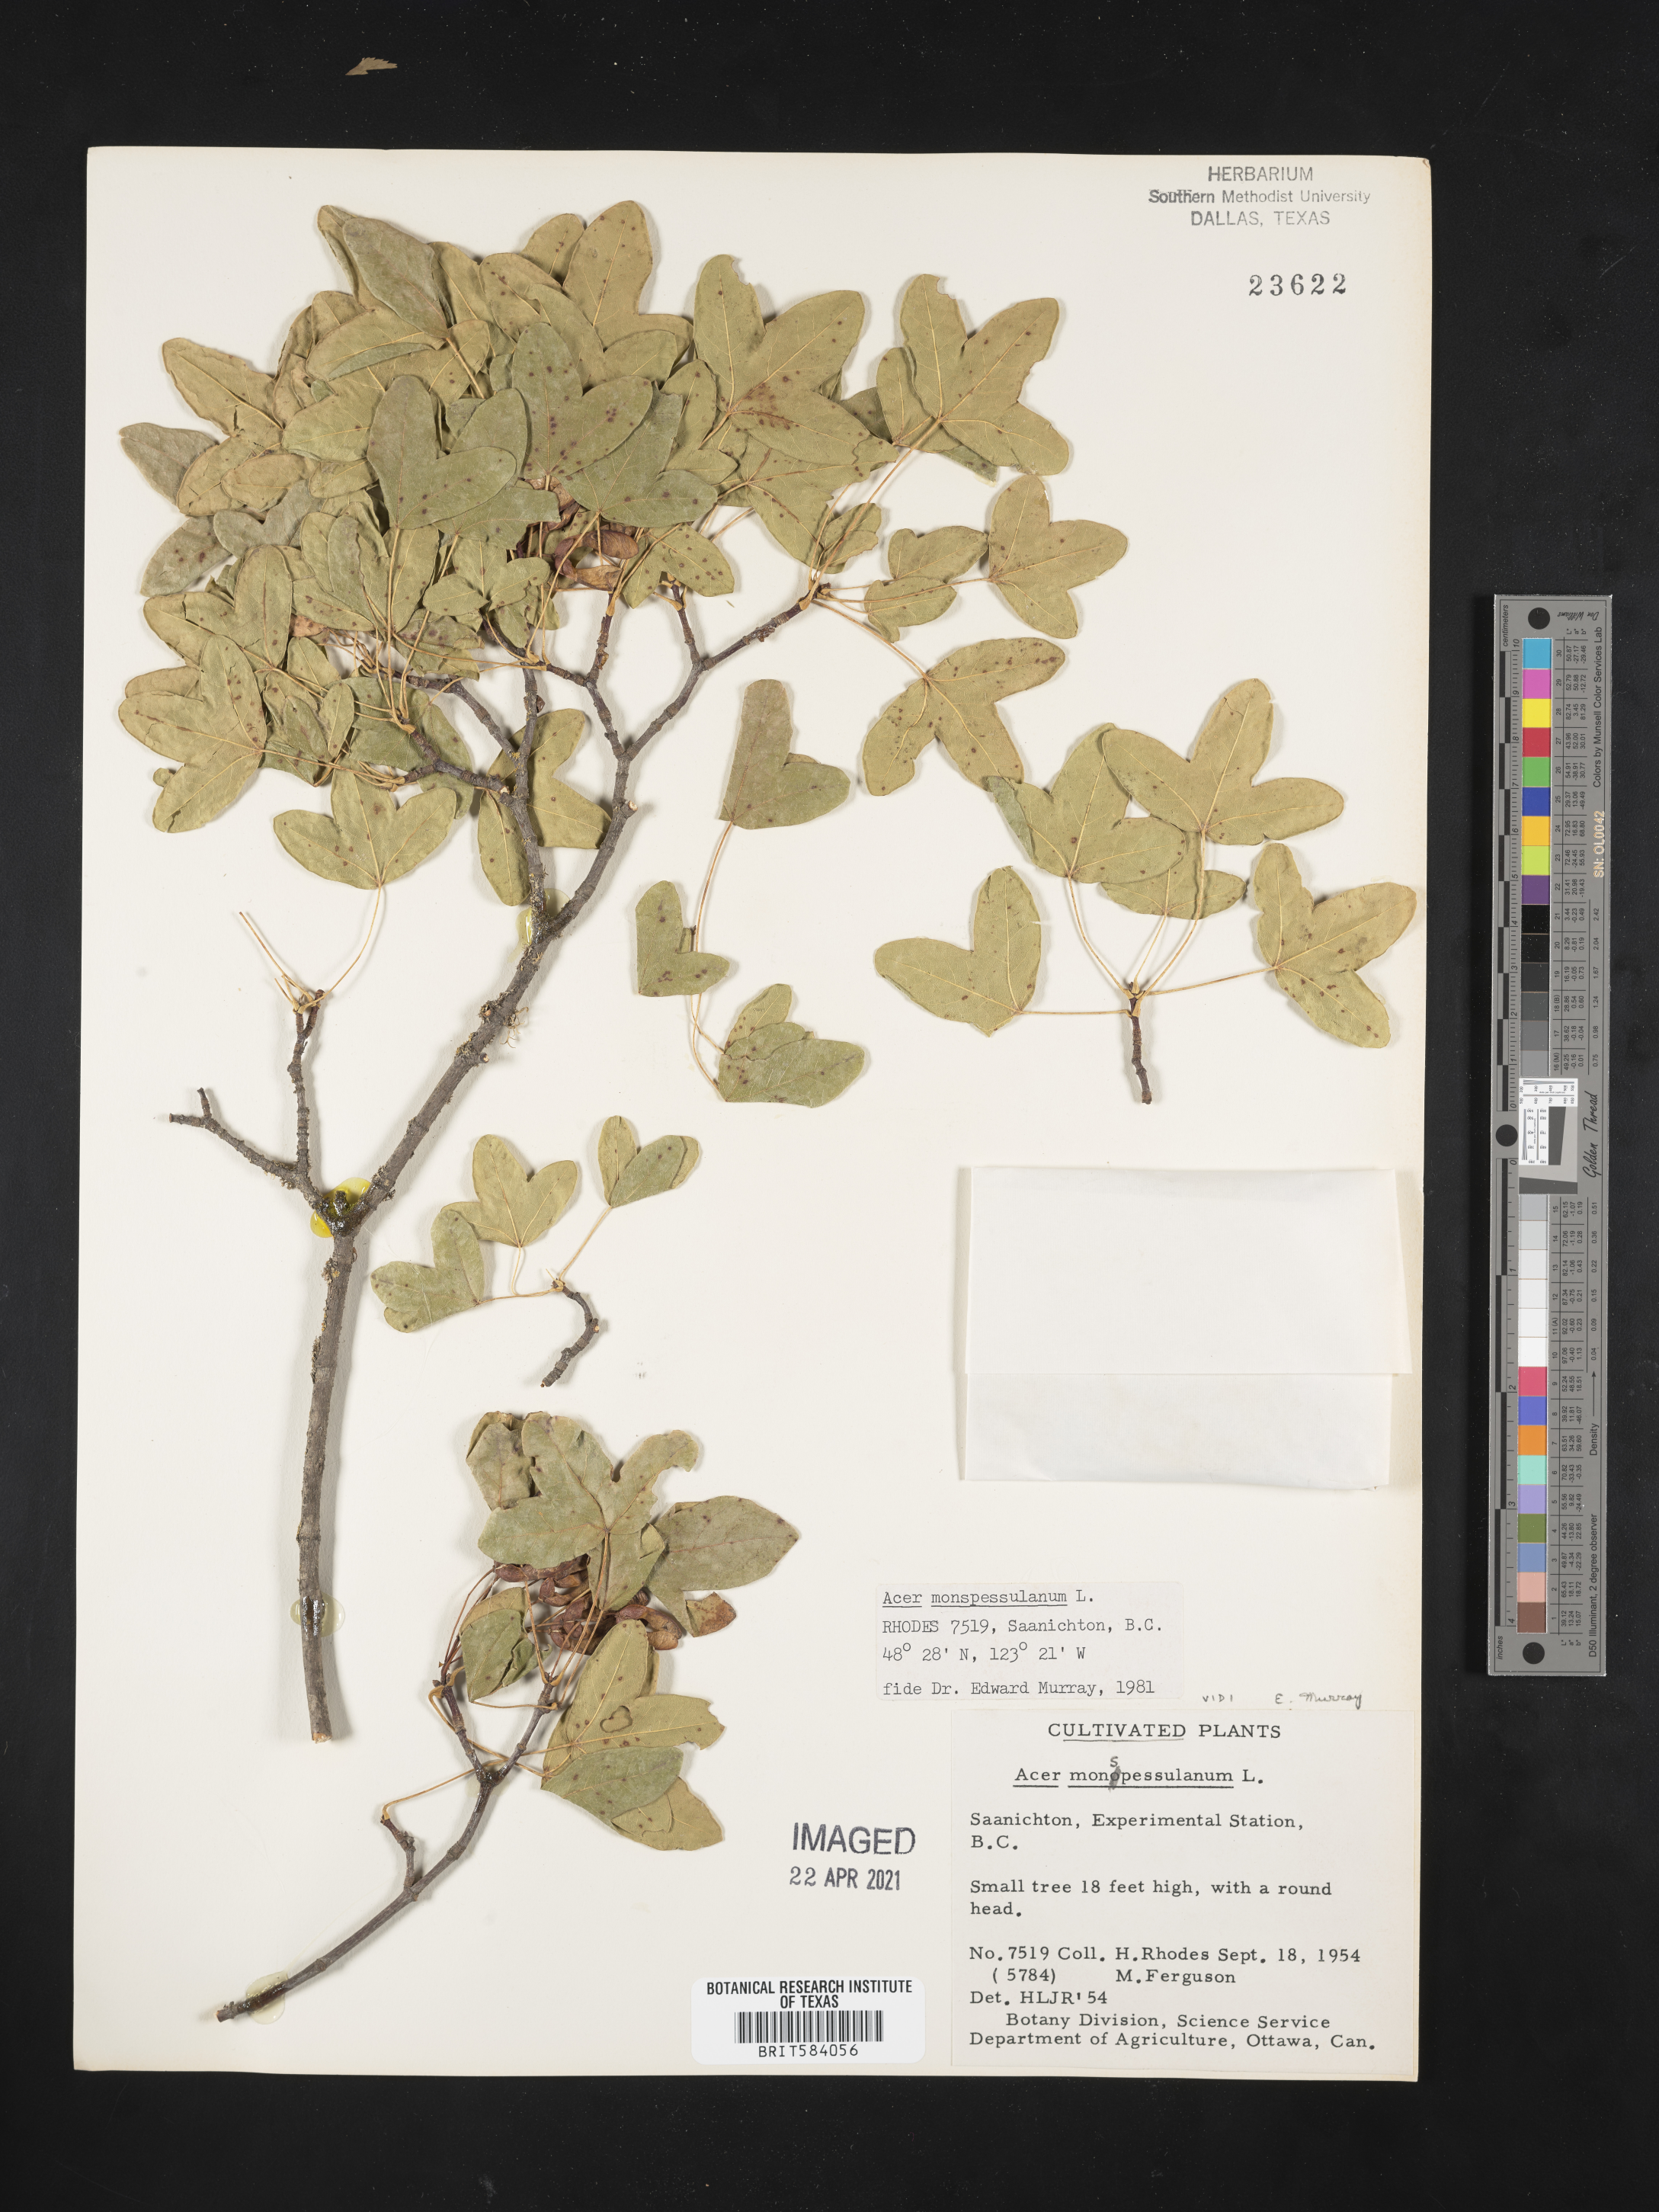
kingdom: Plantae
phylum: Tracheophyta
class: Magnoliopsida
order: Sapindales
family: Sapindaceae
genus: Acer
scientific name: Acer monspessulanum
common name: Montpellier maple
